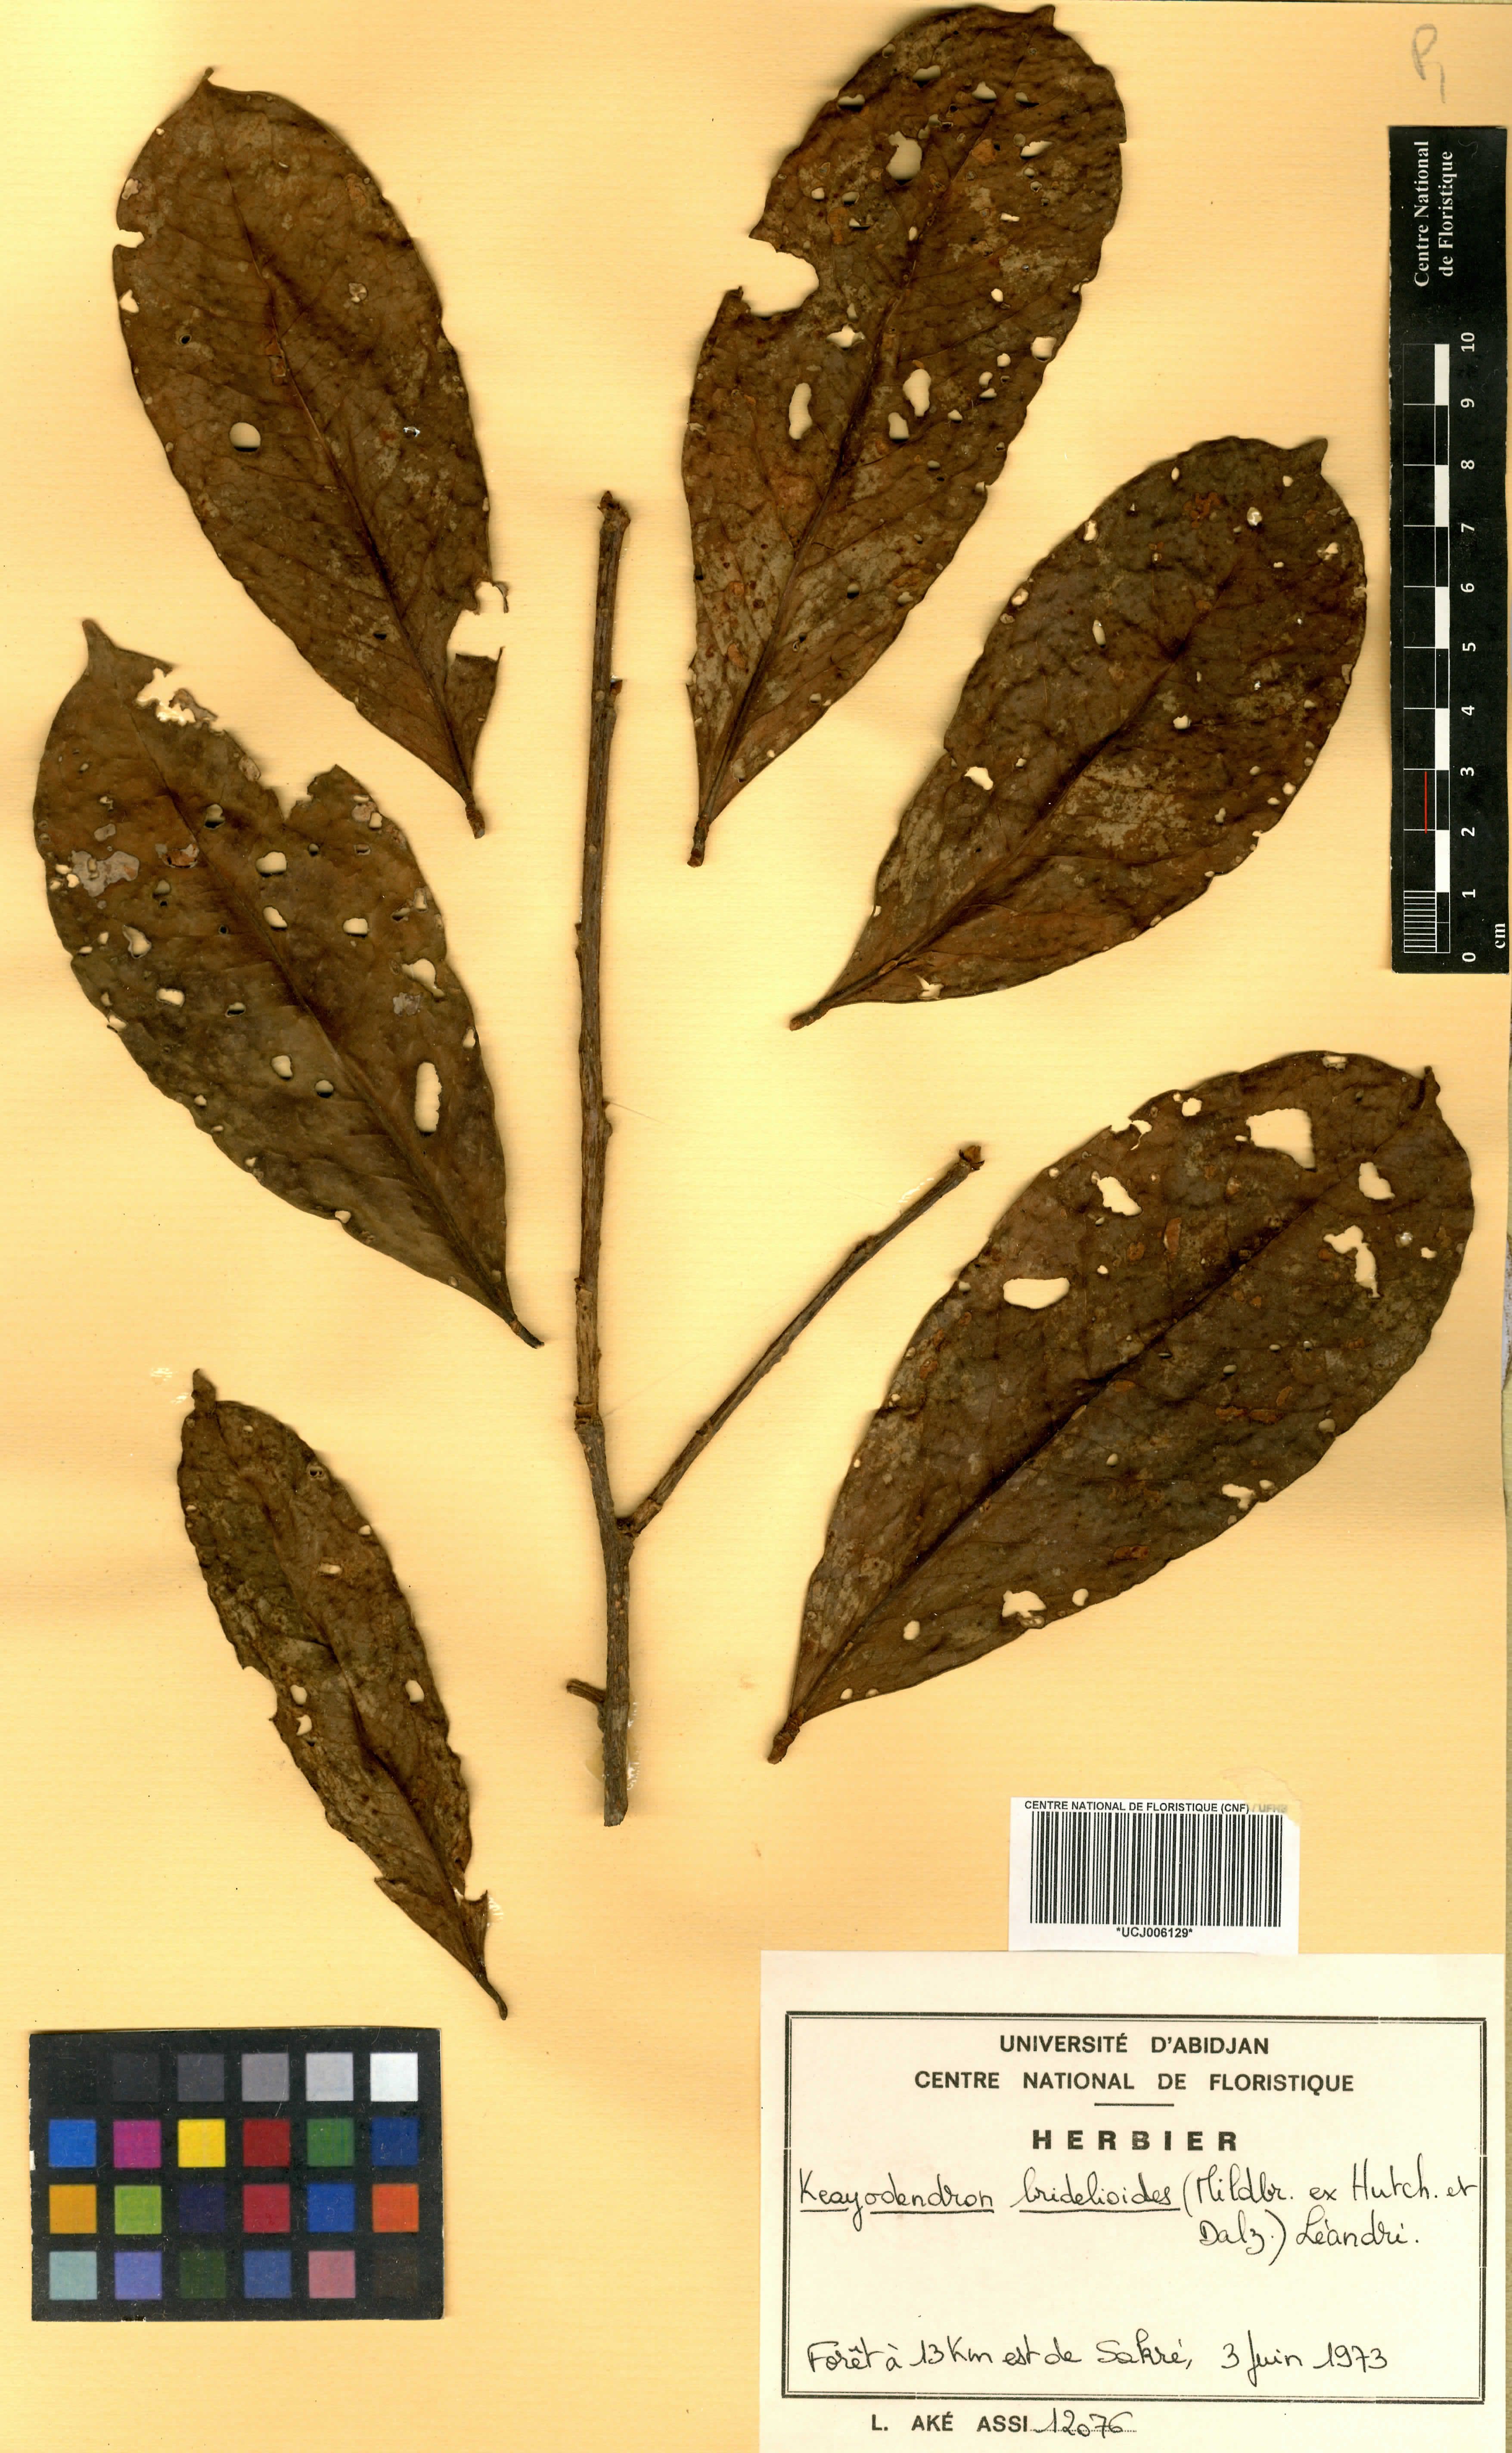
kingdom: Plantae
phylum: Tracheophyta
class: Magnoliopsida
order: Malpighiales
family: Phyllanthaceae
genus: Keayodendron
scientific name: Keayodendron bridelioides
